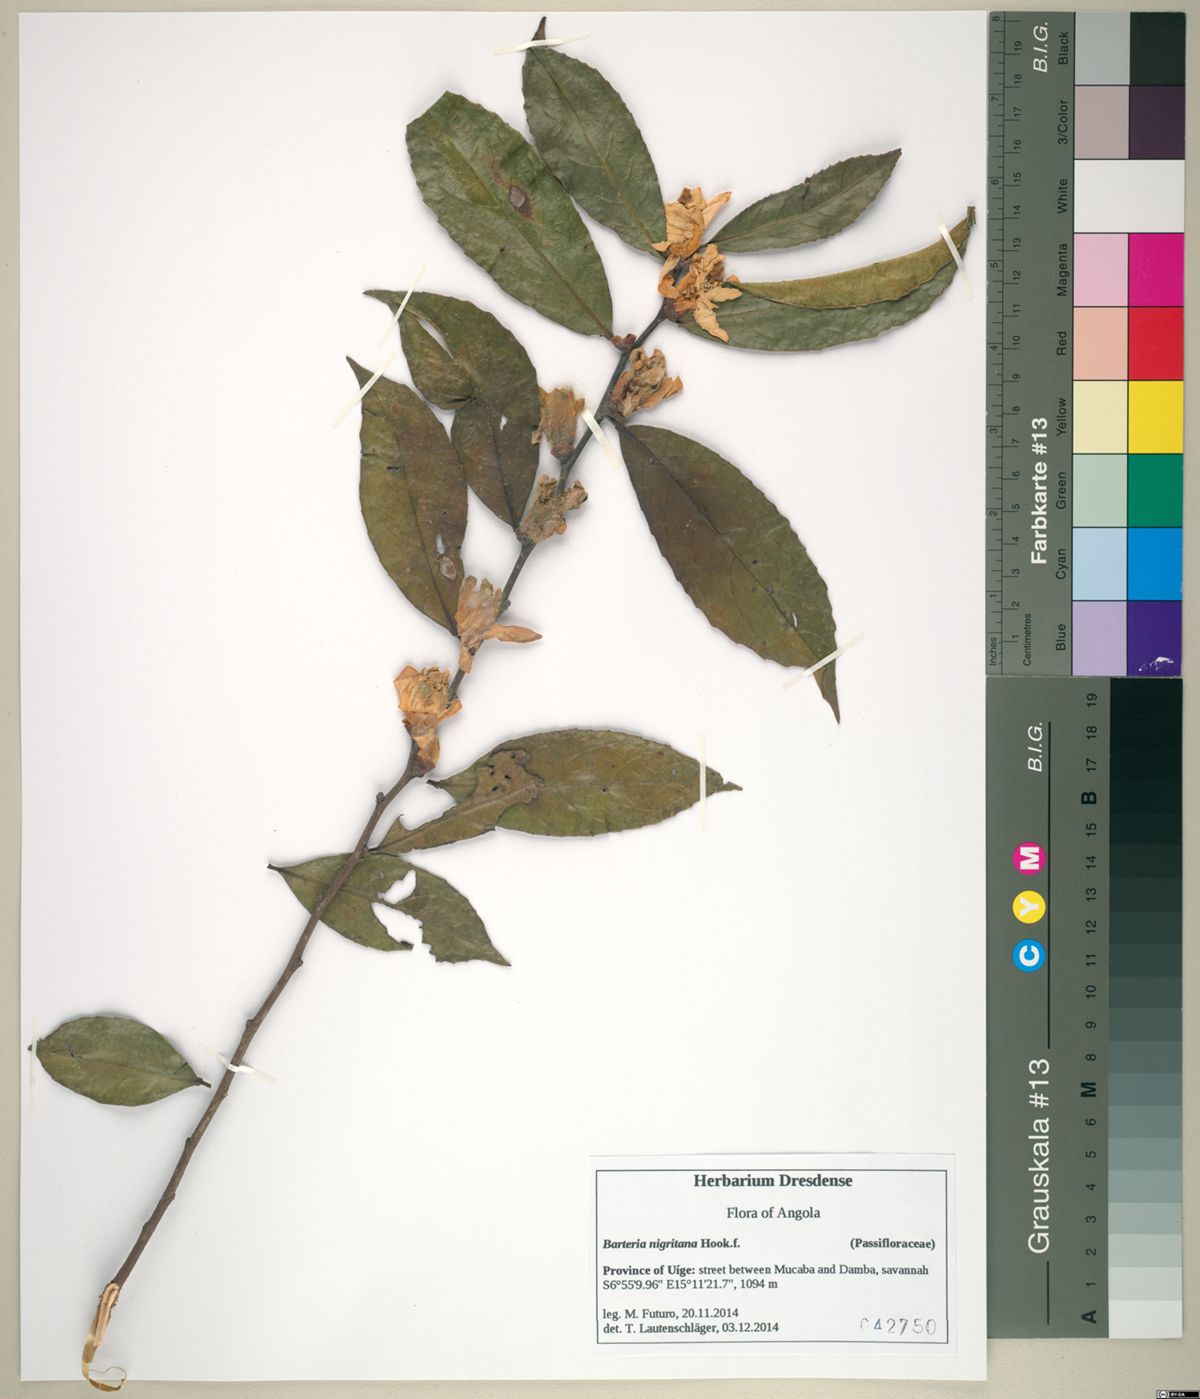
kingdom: Plantae
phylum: Tracheophyta
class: Magnoliopsida
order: Malpighiales
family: Passifloraceae
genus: Barteria
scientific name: Barteria solida
